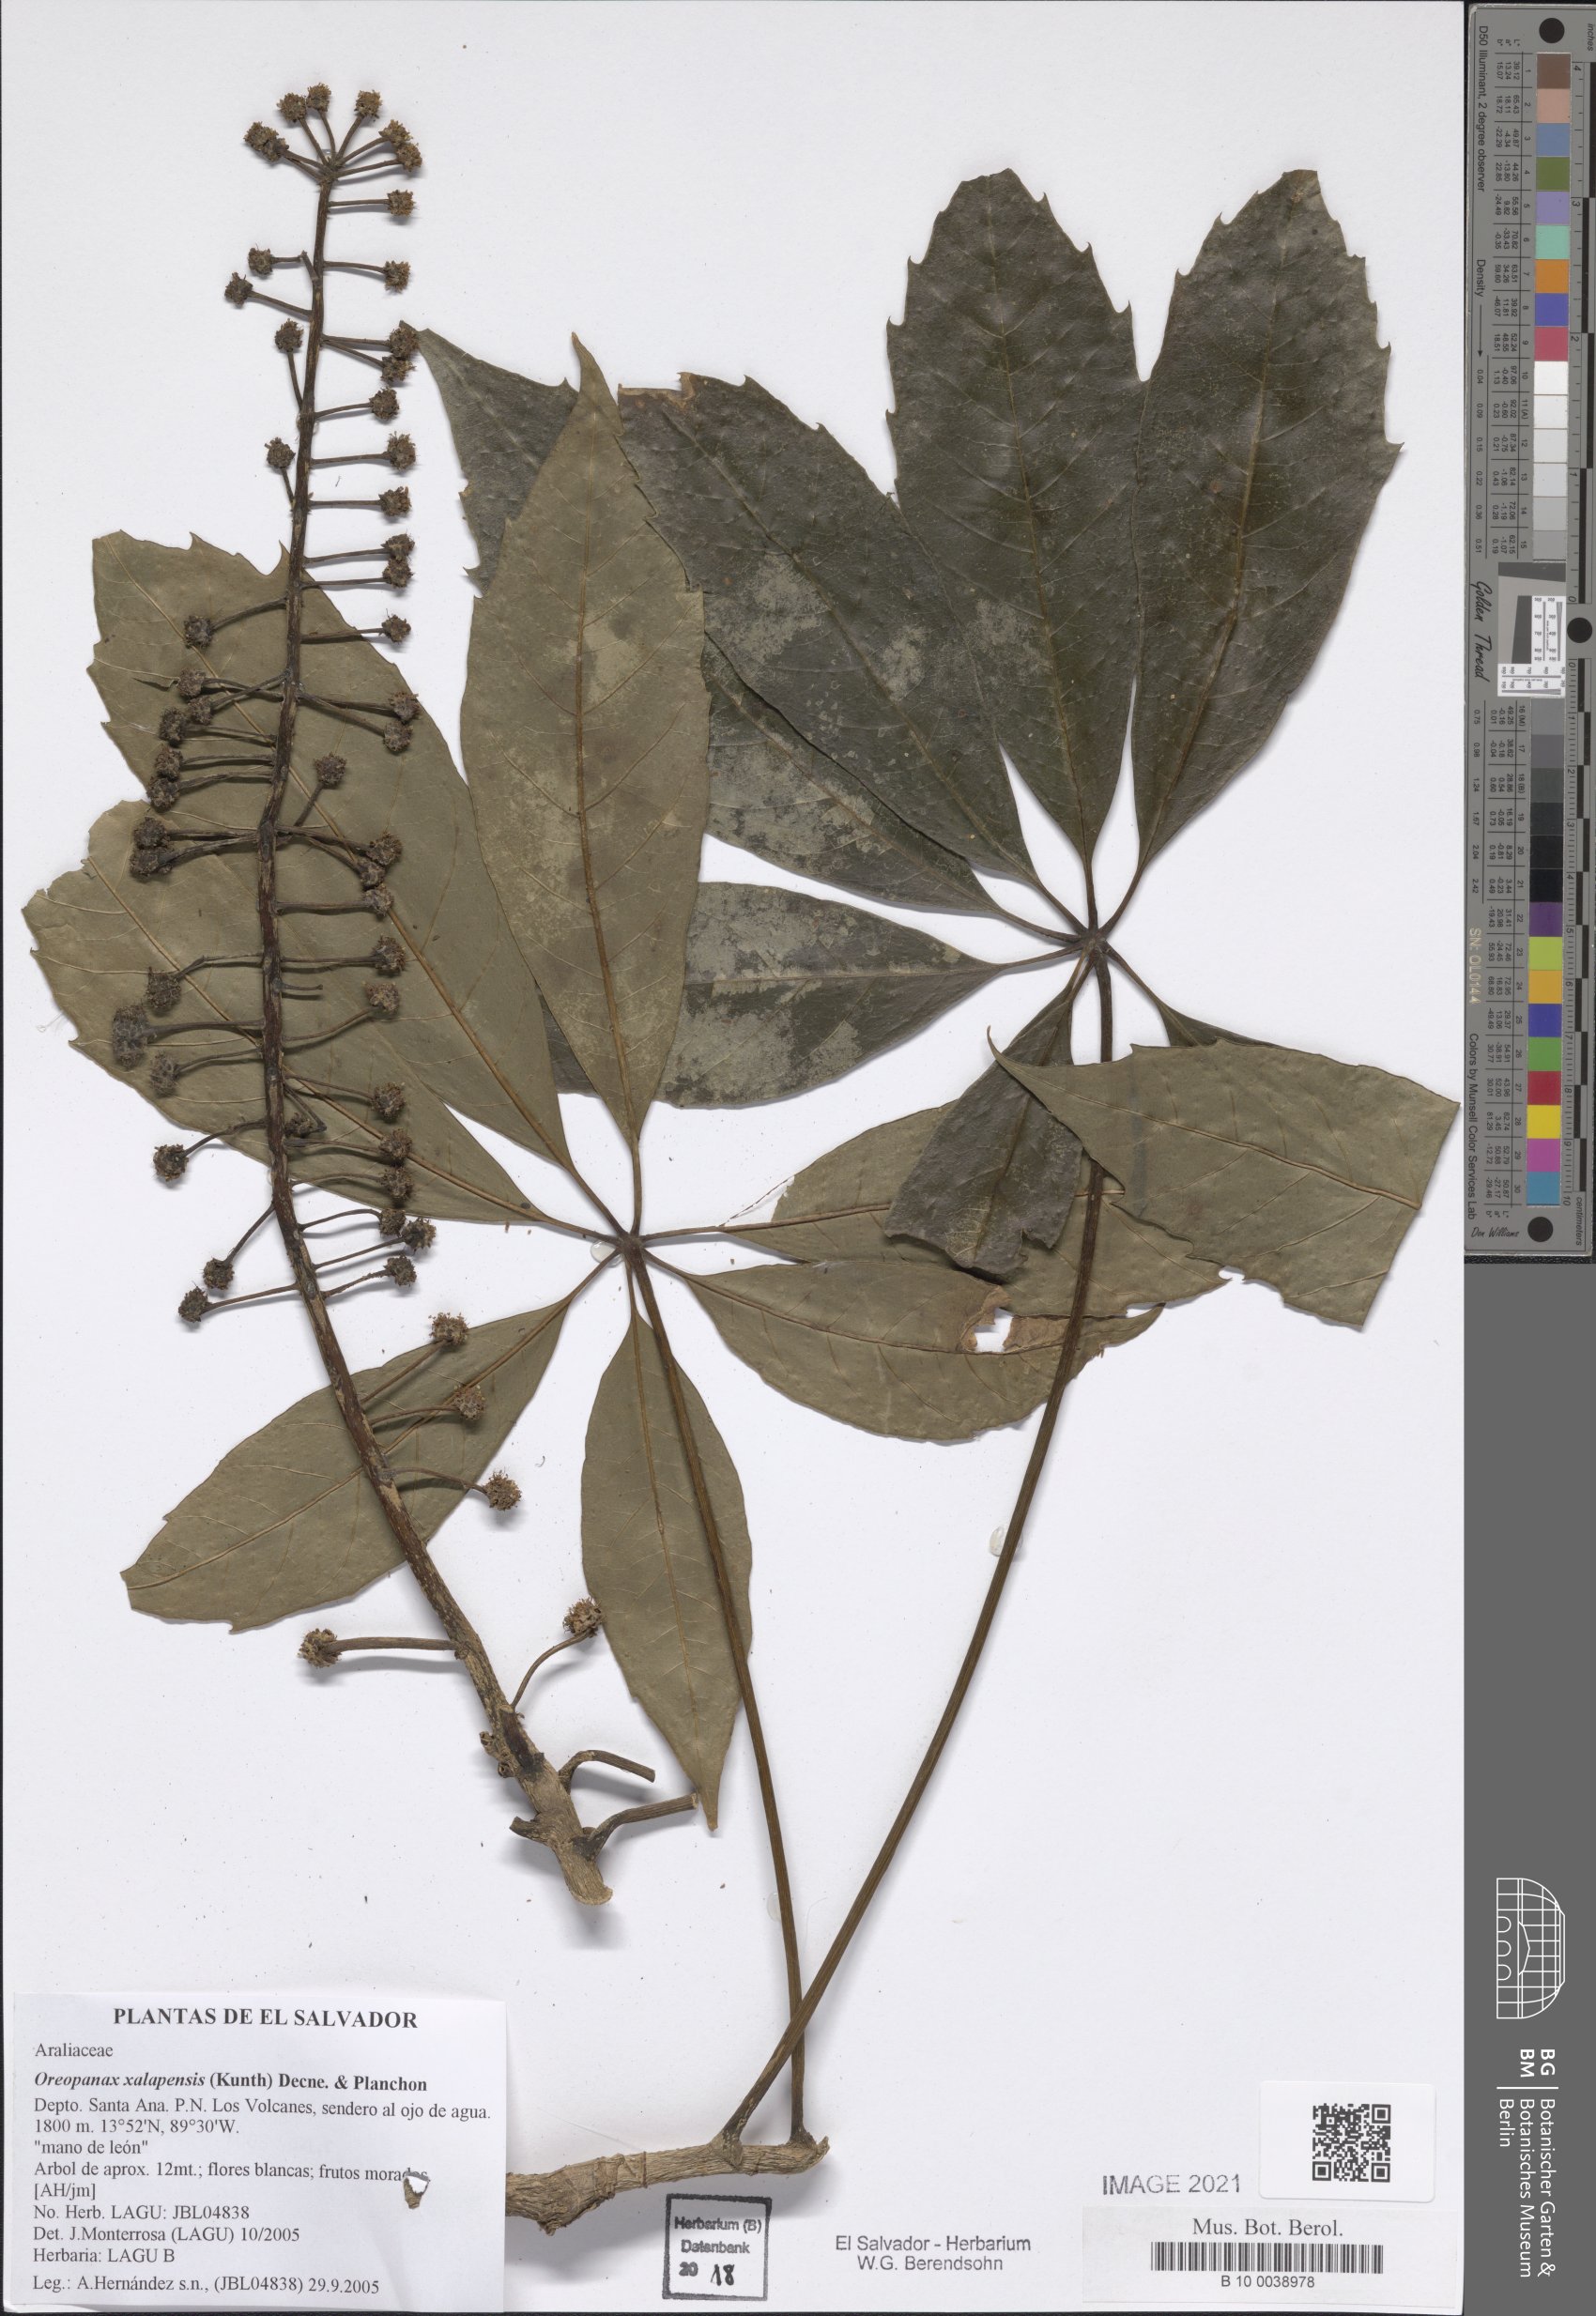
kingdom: Plantae
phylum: Tracheophyta
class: Magnoliopsida
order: Apiales
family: Araliaceae
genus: Oreopanax
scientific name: Oreopanax xalapensis
